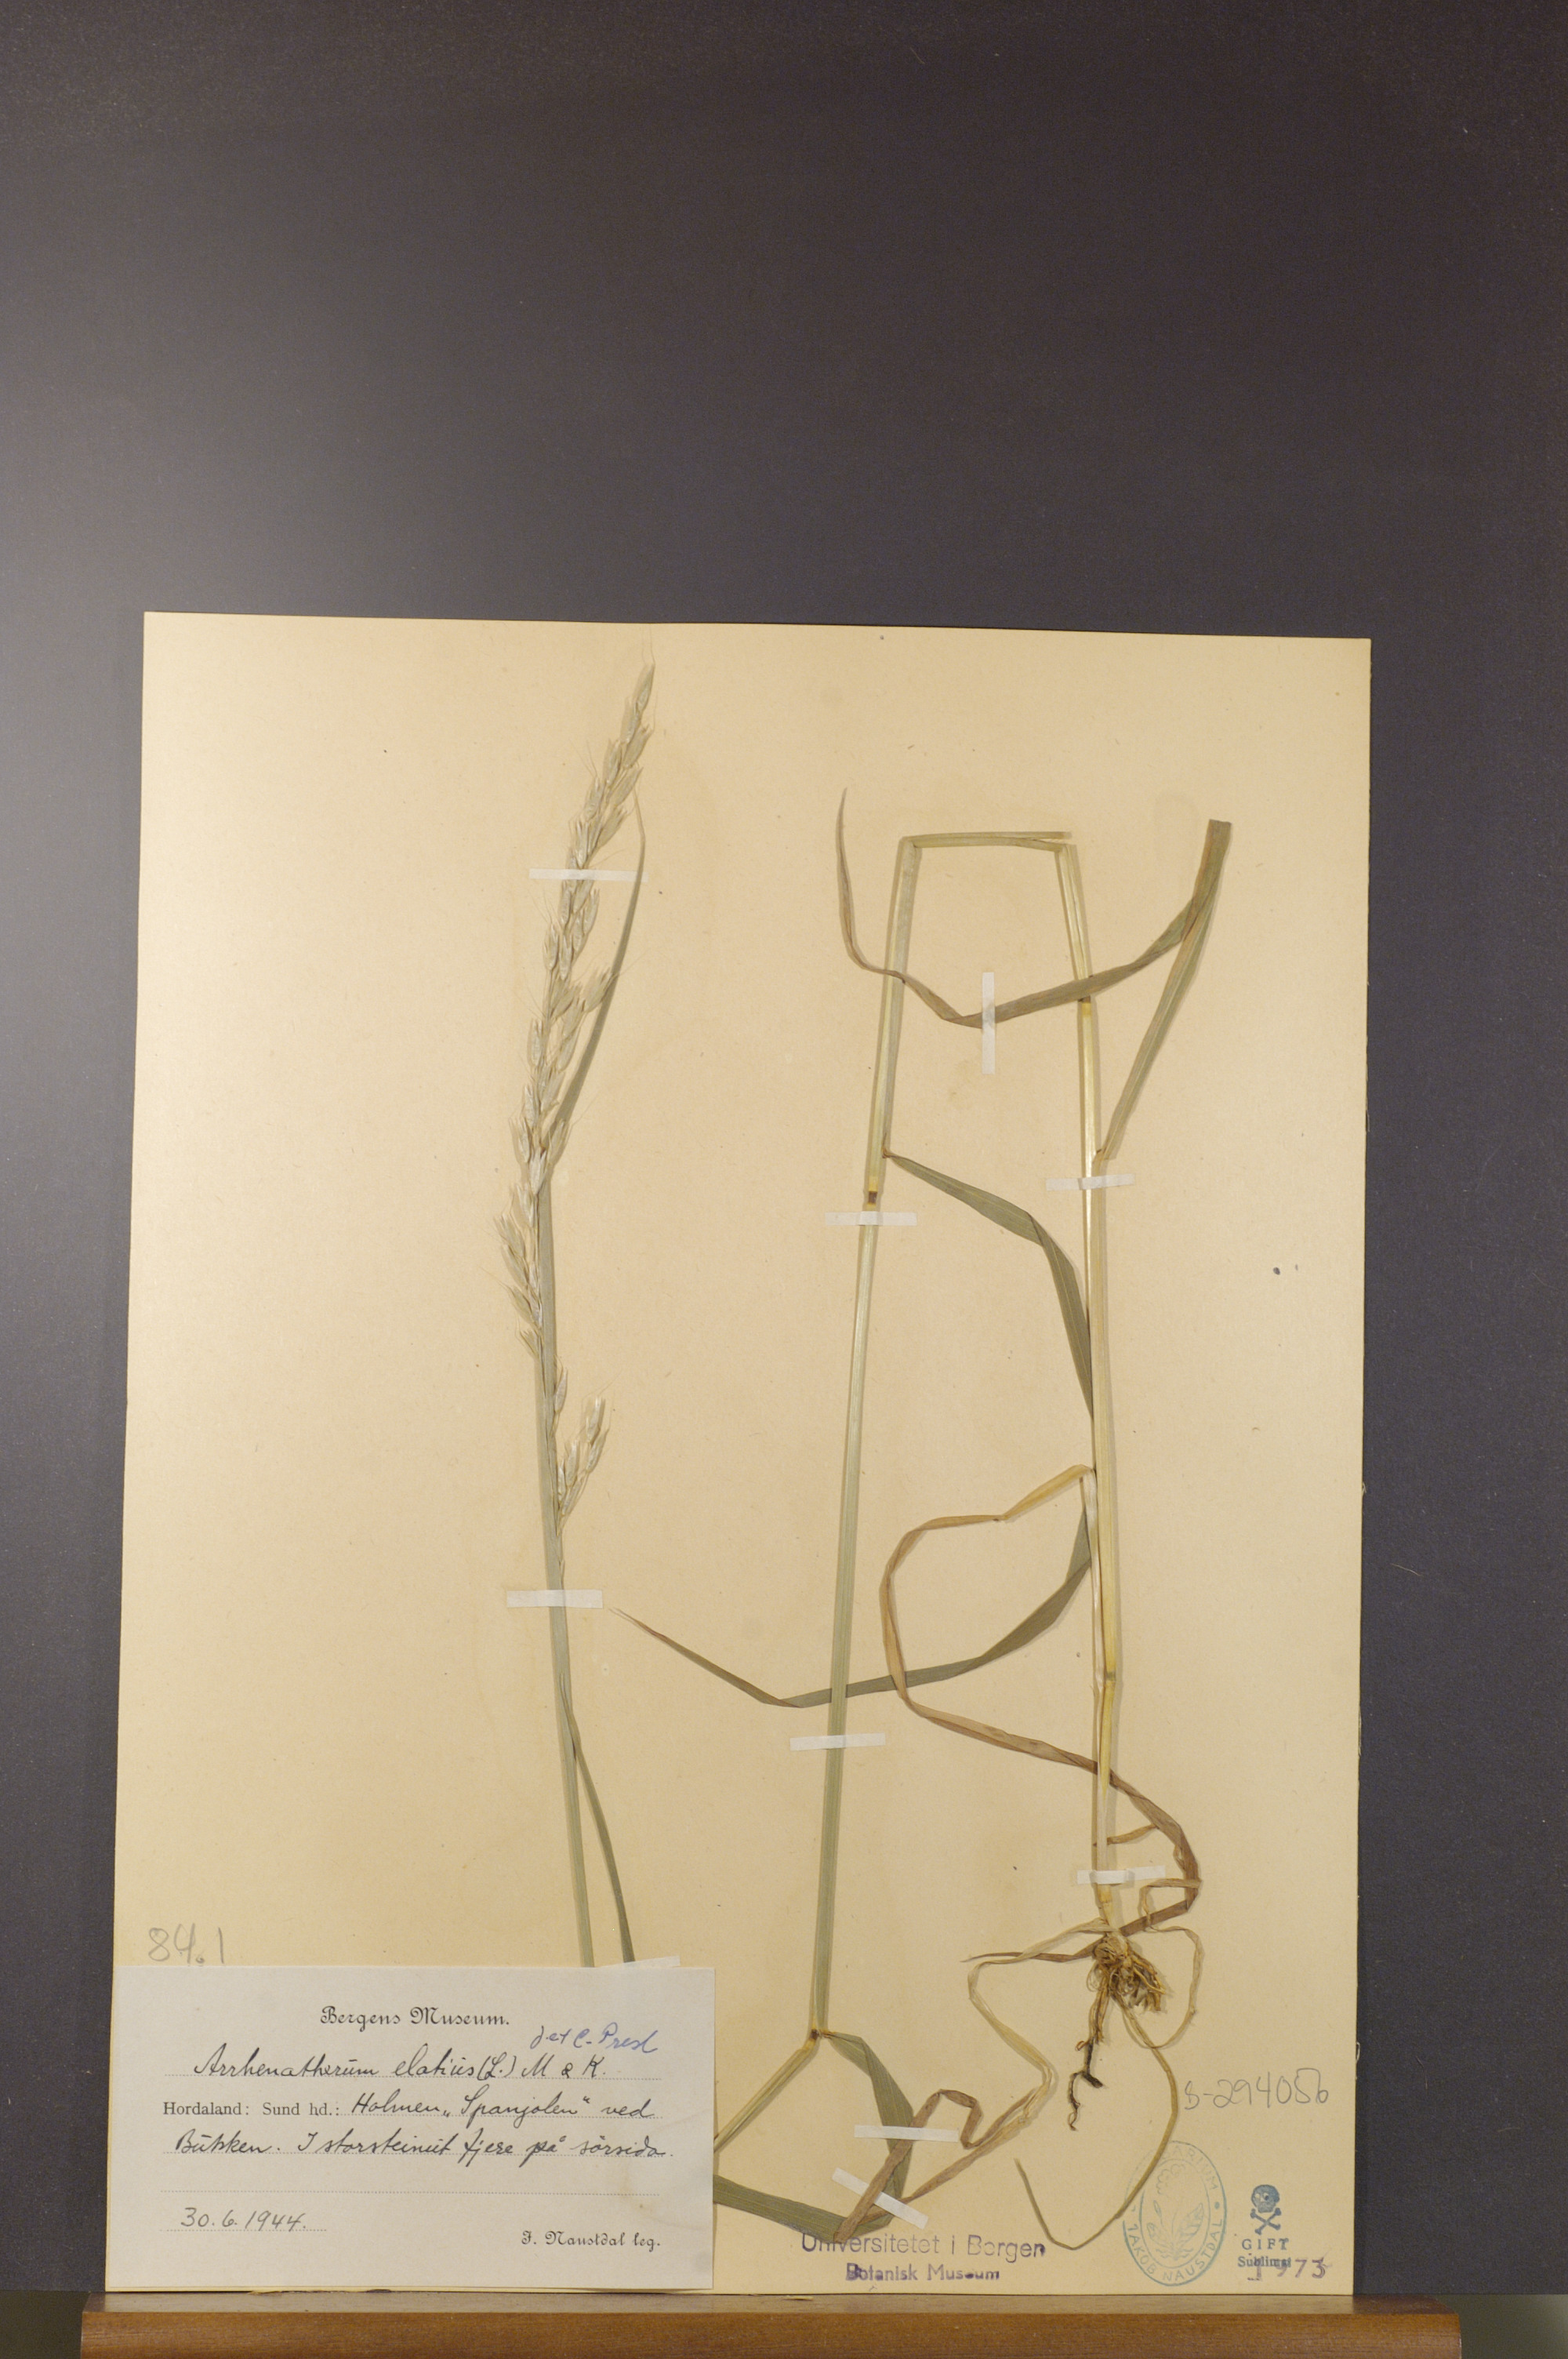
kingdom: Plantae
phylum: Tracheophyta
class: Liliopsida
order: Poales
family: Poaceae
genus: Arrhenatherum
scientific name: Arrhenatherum elatius
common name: Tall oatgrass
